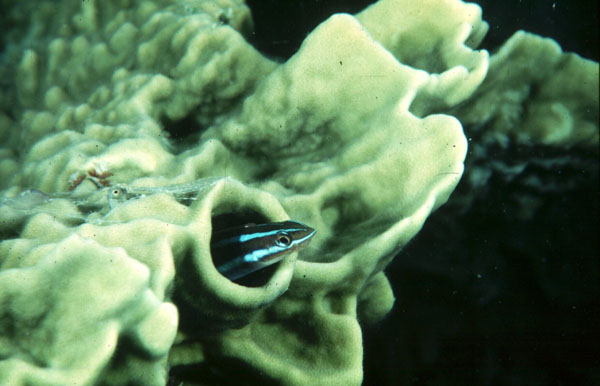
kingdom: Animalia
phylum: Chordata
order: Perciformes
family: Blenniidae
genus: Plagiotremus
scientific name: Plagiotremus rhinorhynchos
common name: Bluestriped fangblenny
